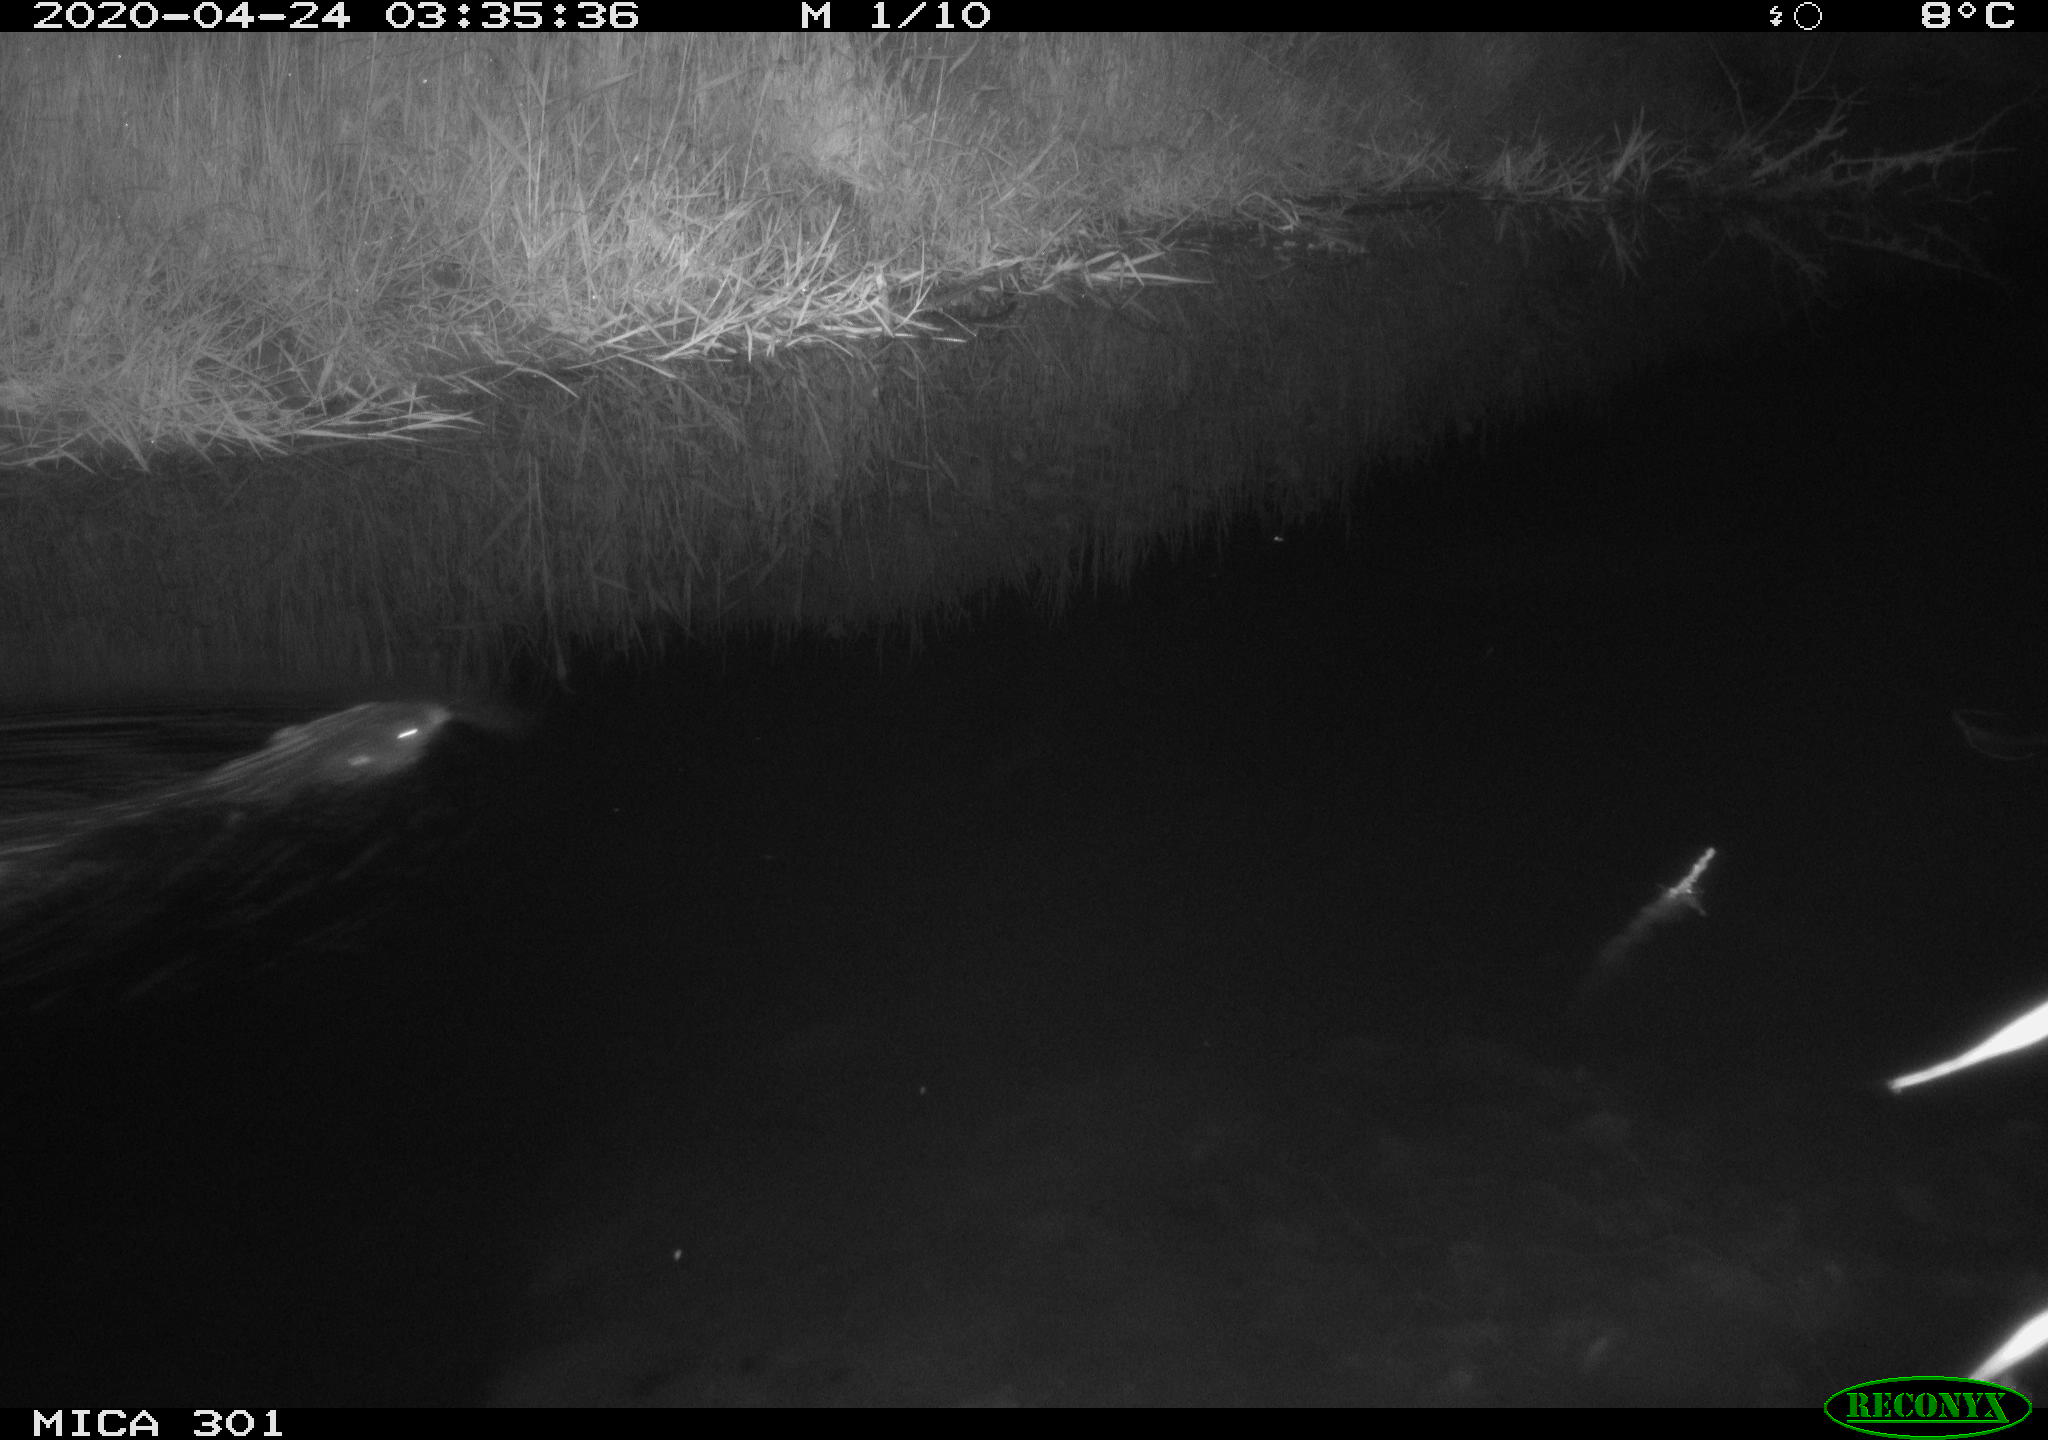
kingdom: Animalia
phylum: Chordata
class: Mammalia
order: Rodentia
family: Castoridae
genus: Castor
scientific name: Castor fiber
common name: Eurasian beaver
